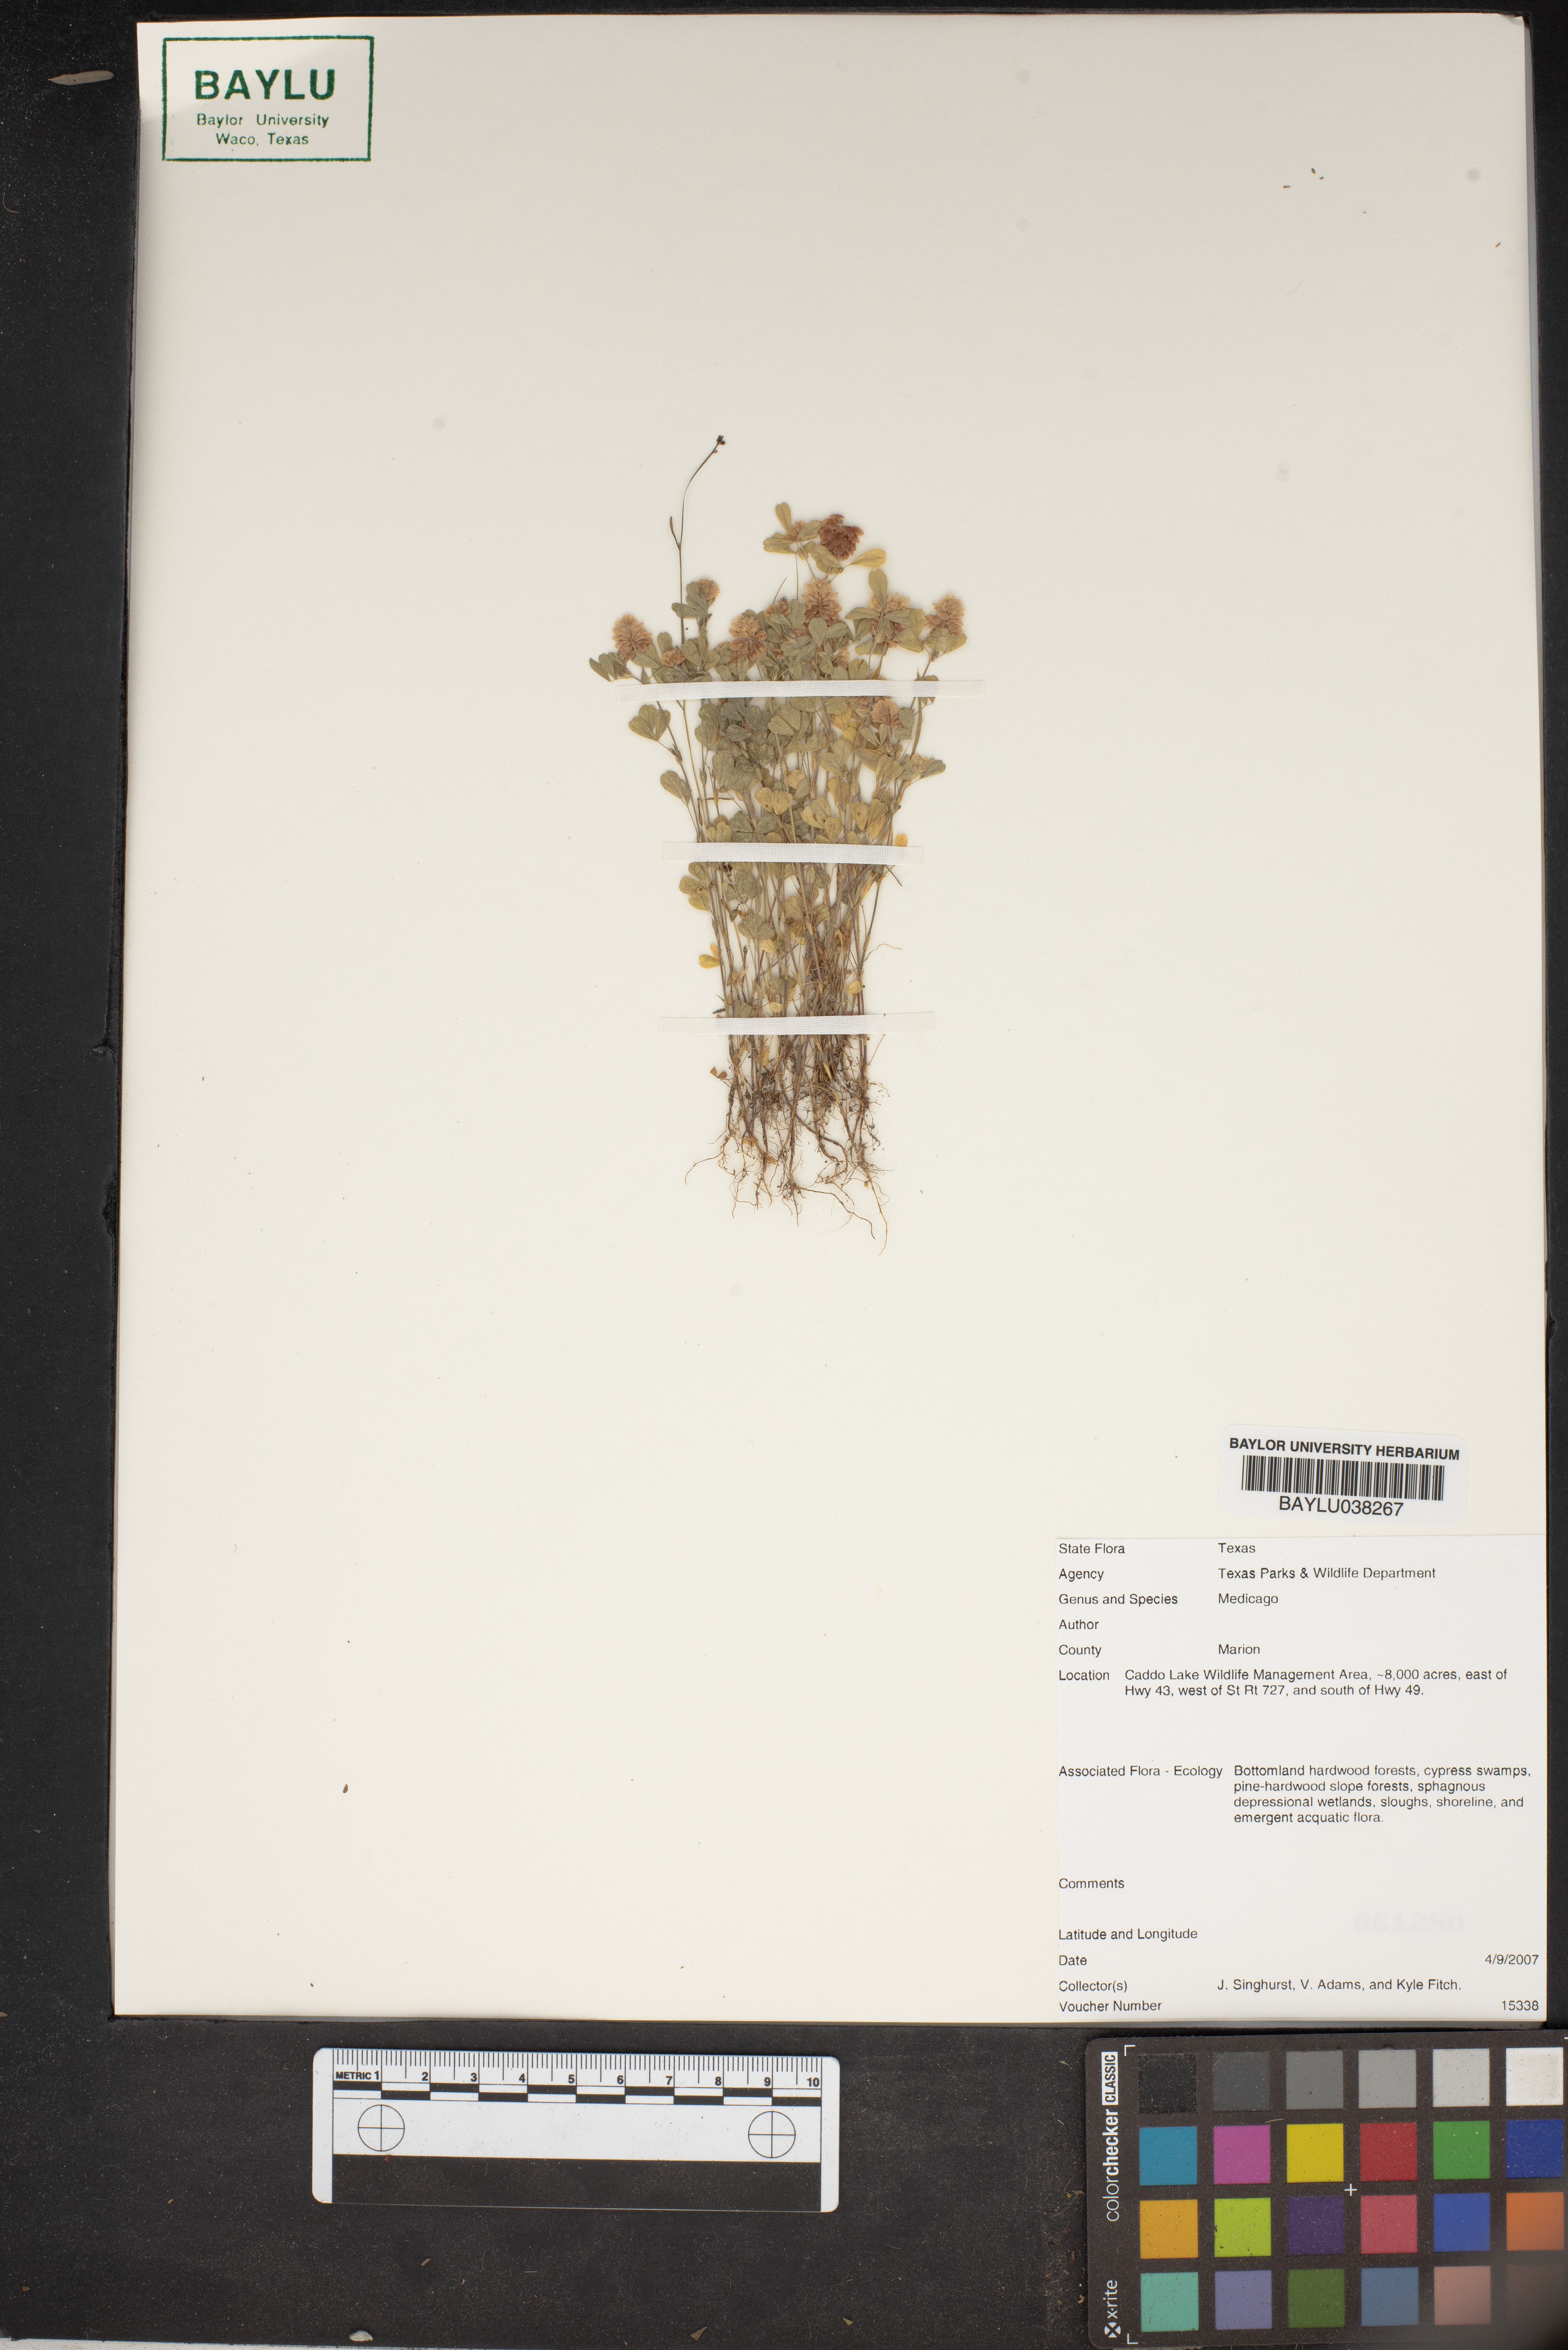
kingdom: Plantae
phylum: Tracheophyta
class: Magnoliopsida
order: Fabales
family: Fabaceae
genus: Medicago
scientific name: Medicago
